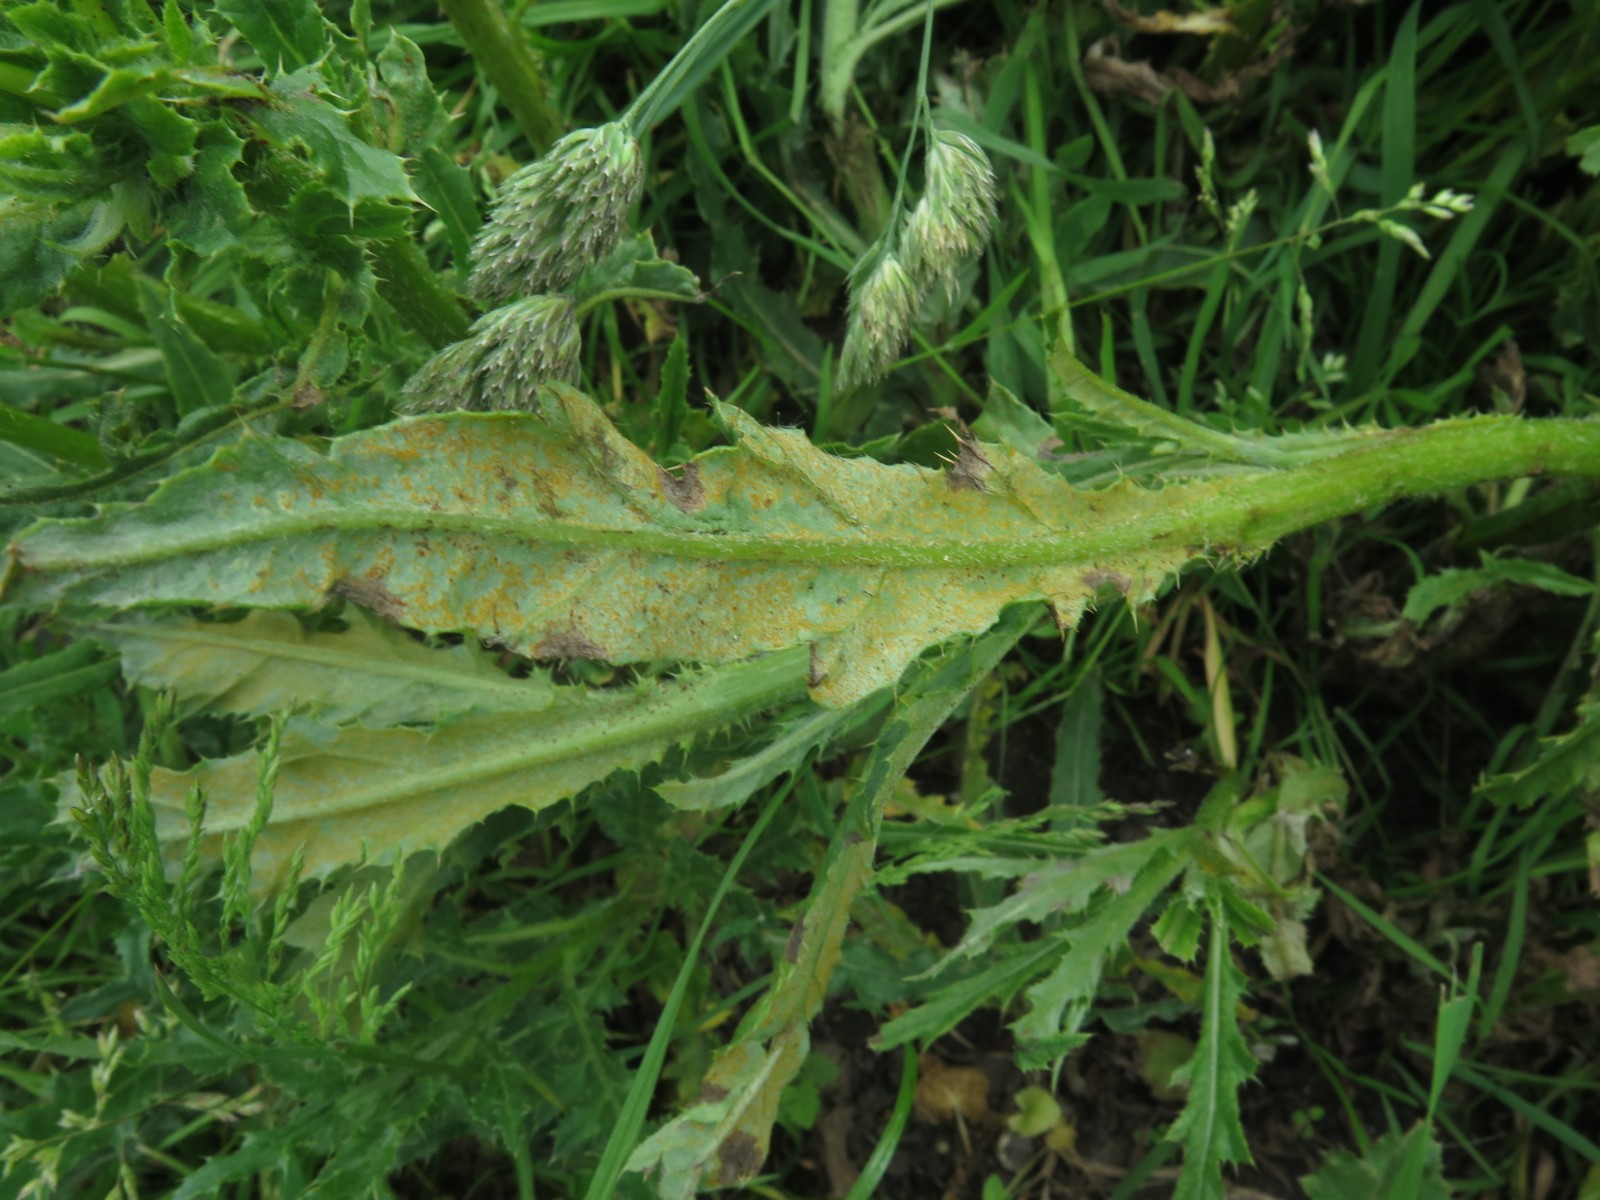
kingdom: Fungi
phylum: Basidiomycota
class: Pucciniomycetes
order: Pucciniales
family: Pucciniaceae
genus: Puccinia
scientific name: Puccinia suaveolens
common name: tidsel-tvecellerust
